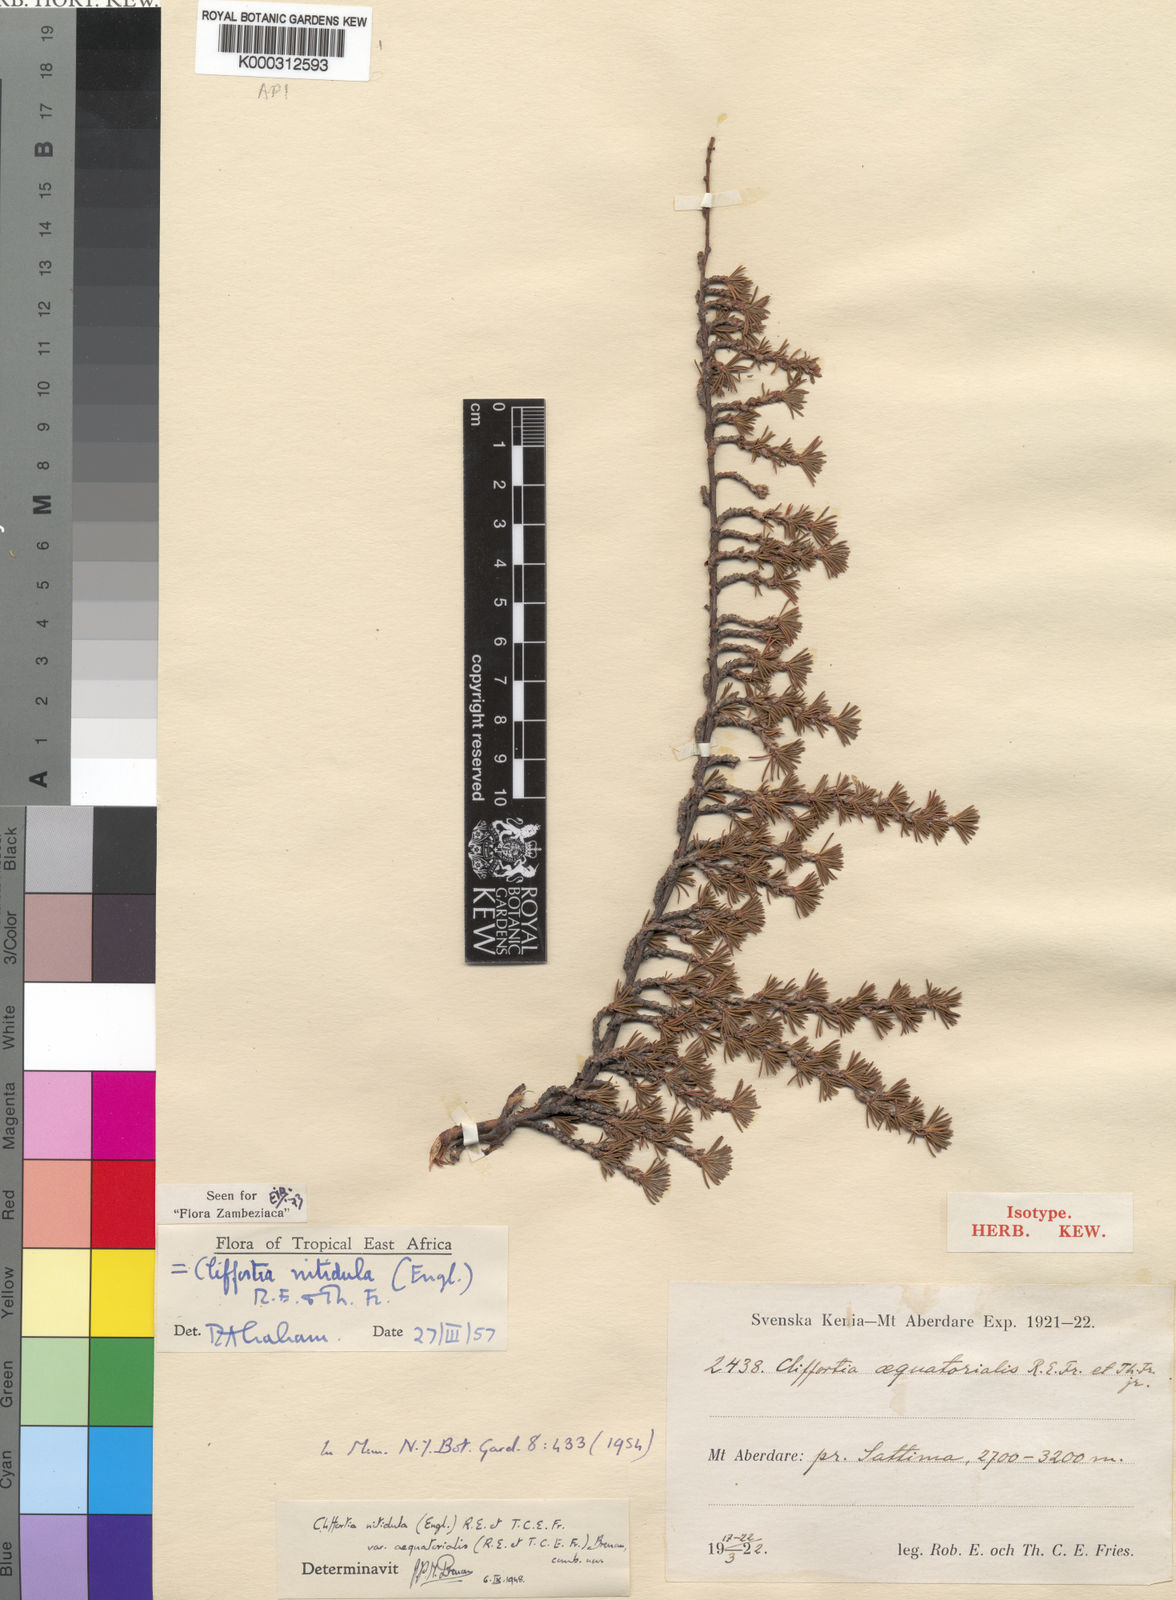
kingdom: Plantae
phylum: Tracheophyta
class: Magnoliopsida
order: Rosales
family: Rosaceae
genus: Cliffortia
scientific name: Cliffortia nitidula
